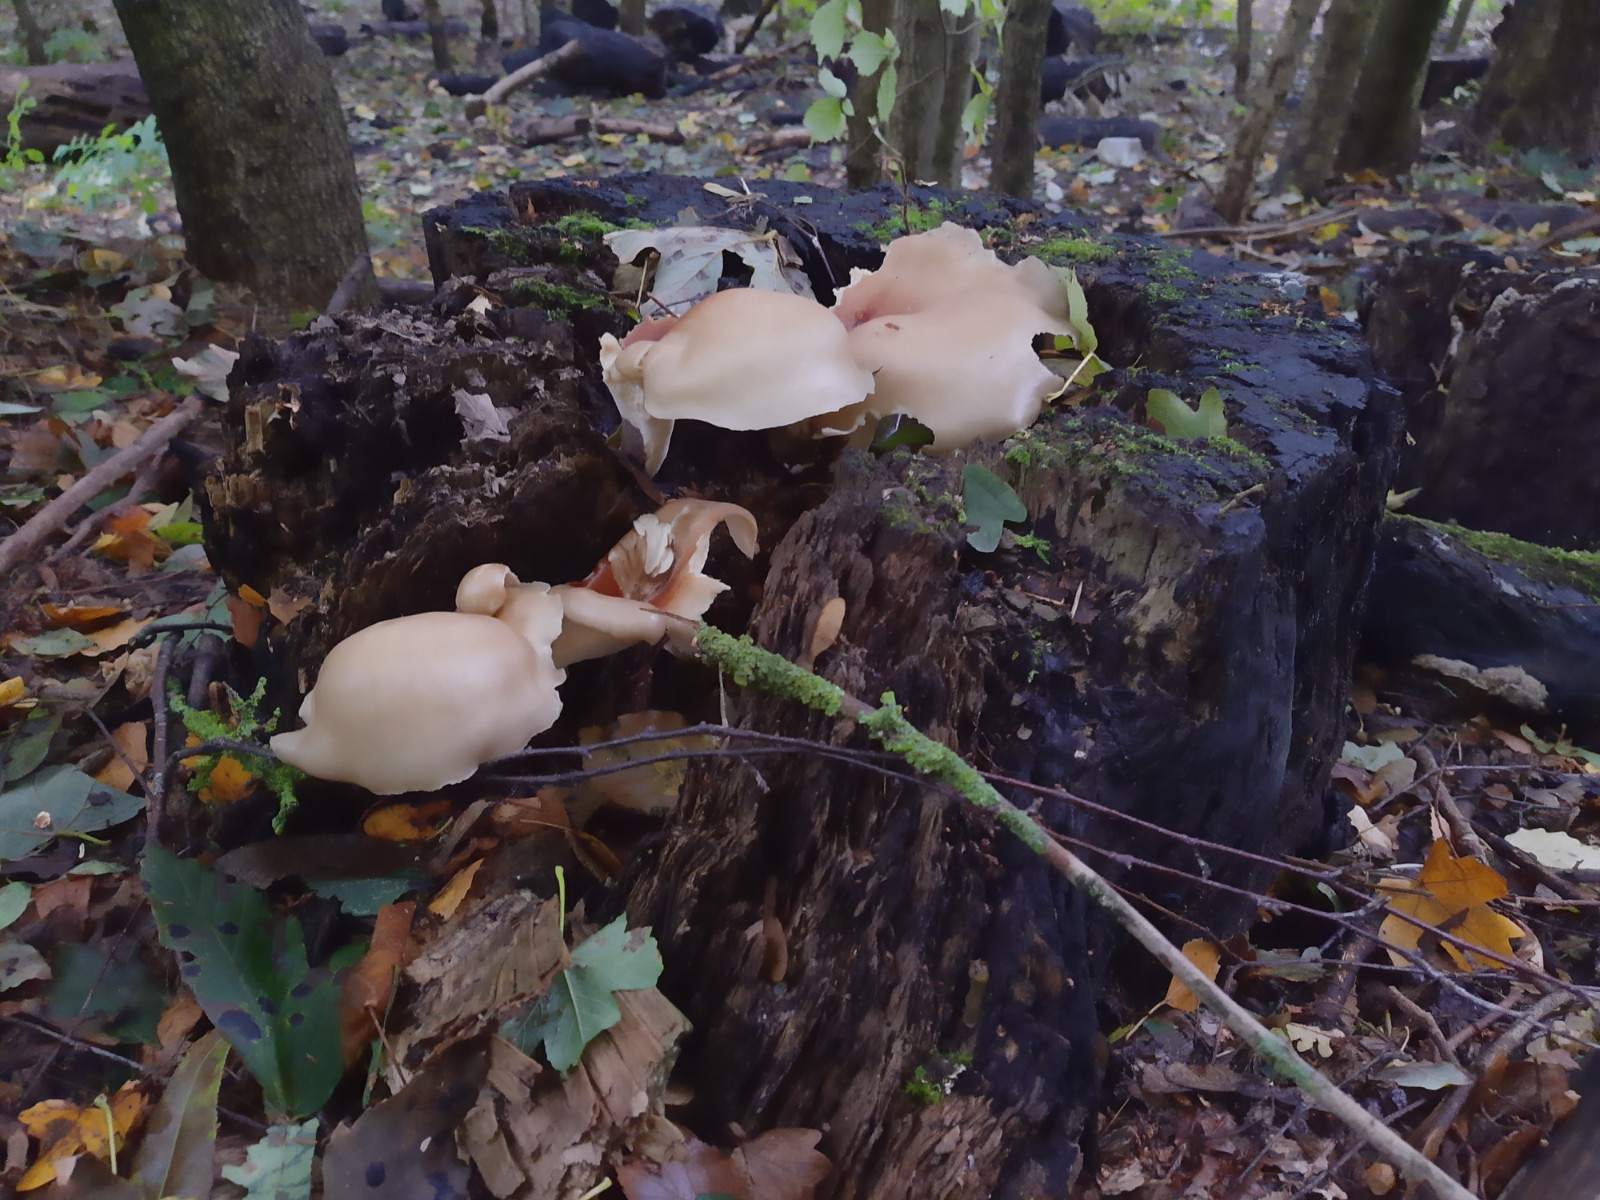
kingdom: Fungi
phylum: Basidiomycota
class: Agaricomycetes
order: Polyporales
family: Polyporaceae
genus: Picipes
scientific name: Picipes badius
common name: kastaniebrun stilkporesvamp
